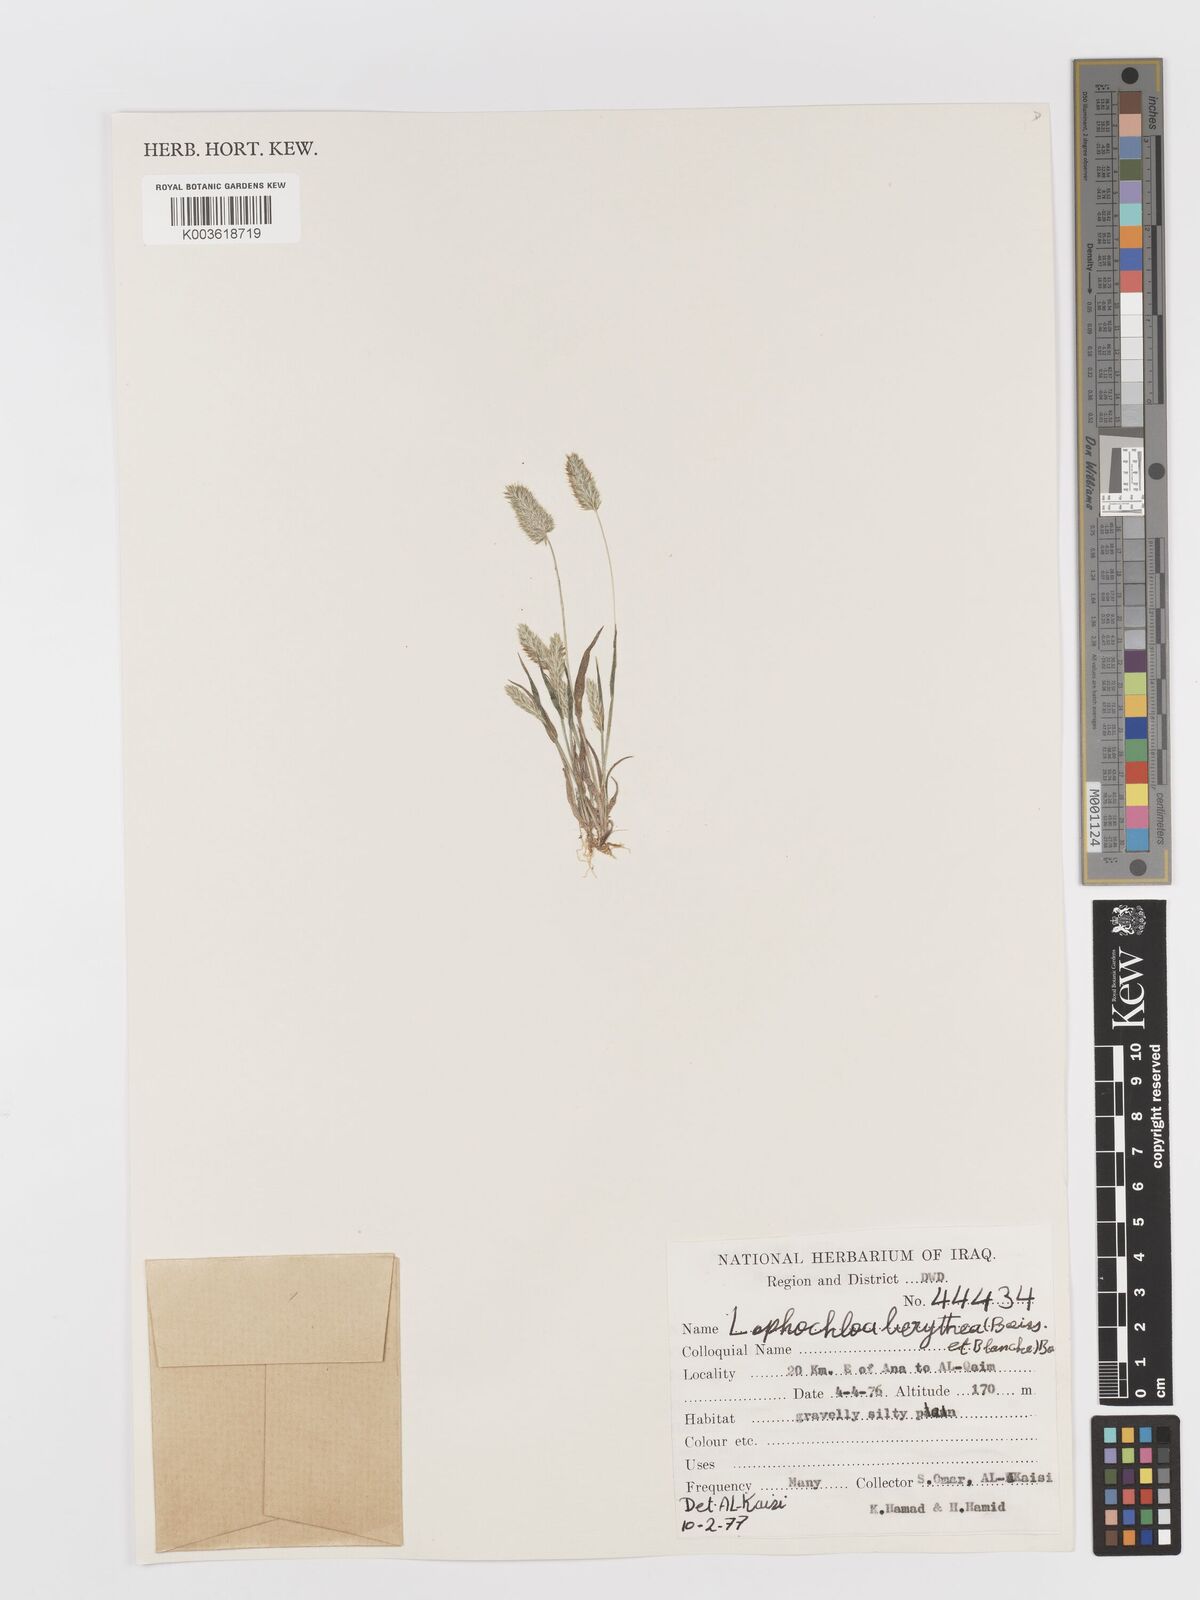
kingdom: Plantae
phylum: Tracheophyta
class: Liliopsida
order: Poales
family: Poaceae
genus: Rostraria
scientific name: Rostraria smyrnaea
